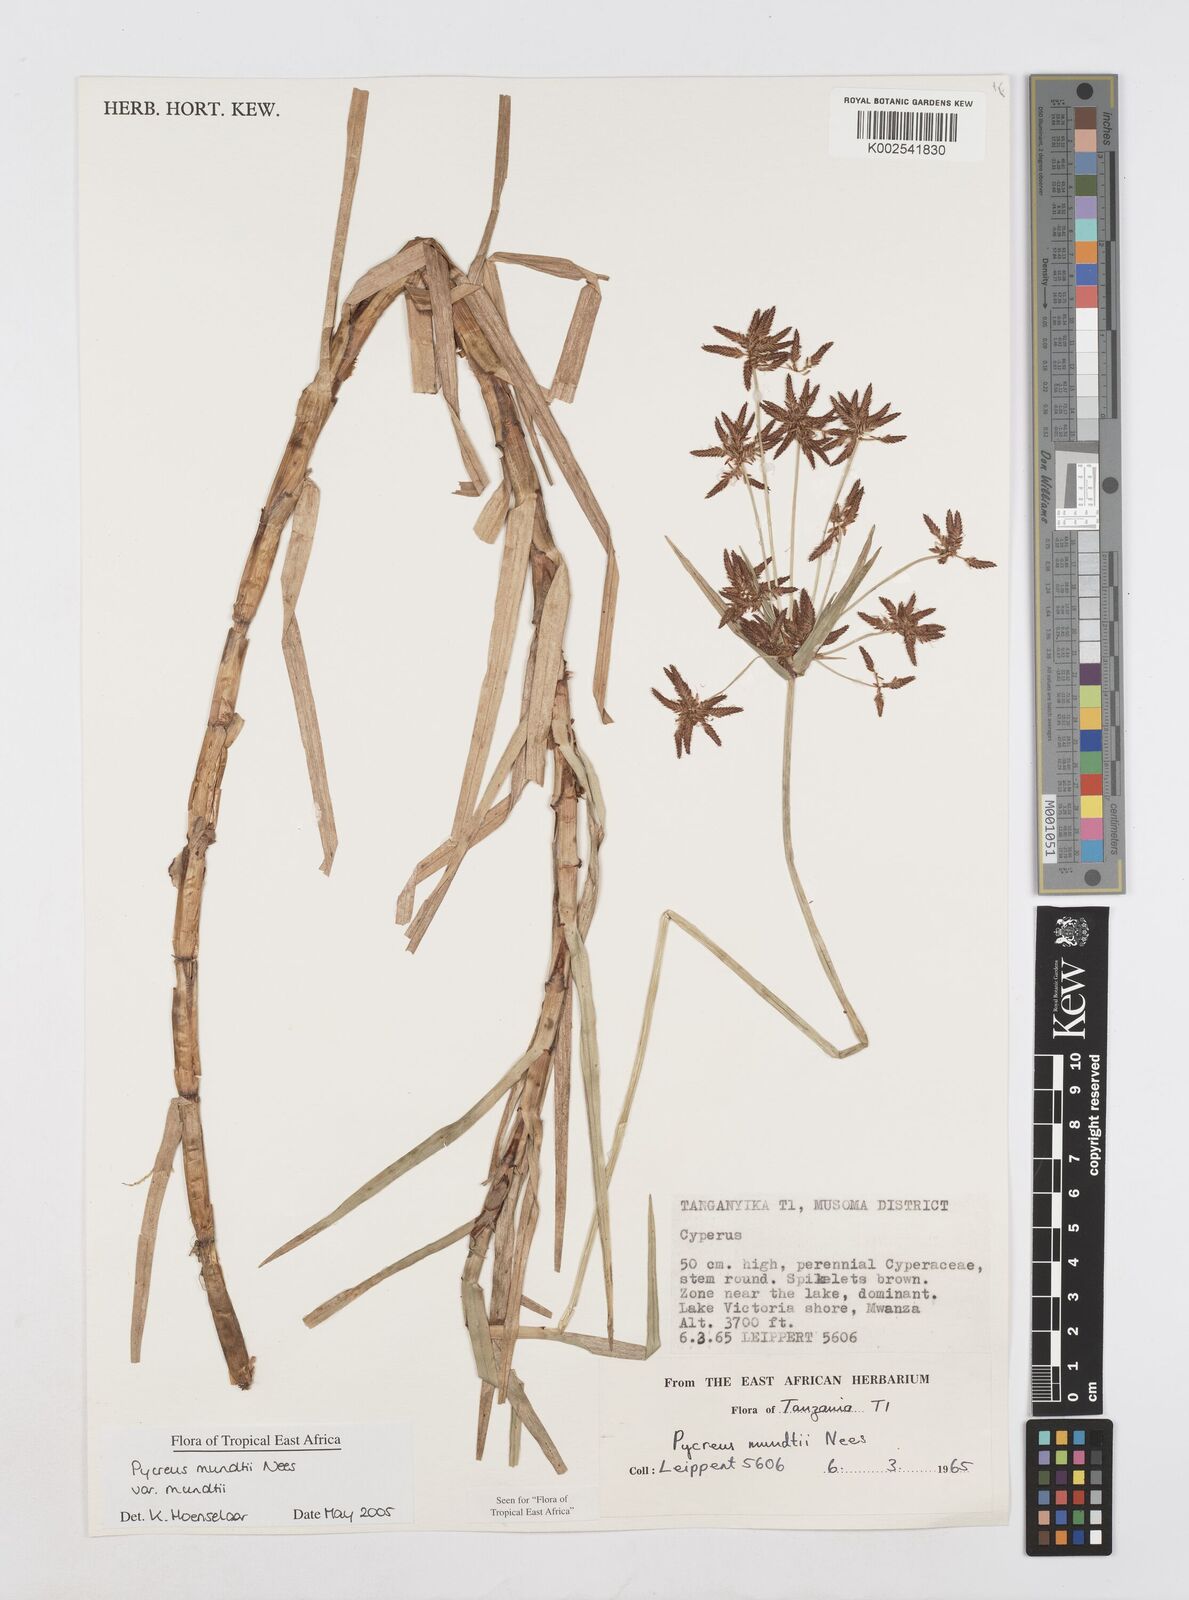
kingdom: Plantae
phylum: Tracheophyta
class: Liliopsida
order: Poales
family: Cyperaceae
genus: Cyperus
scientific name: Cyperus mundii
